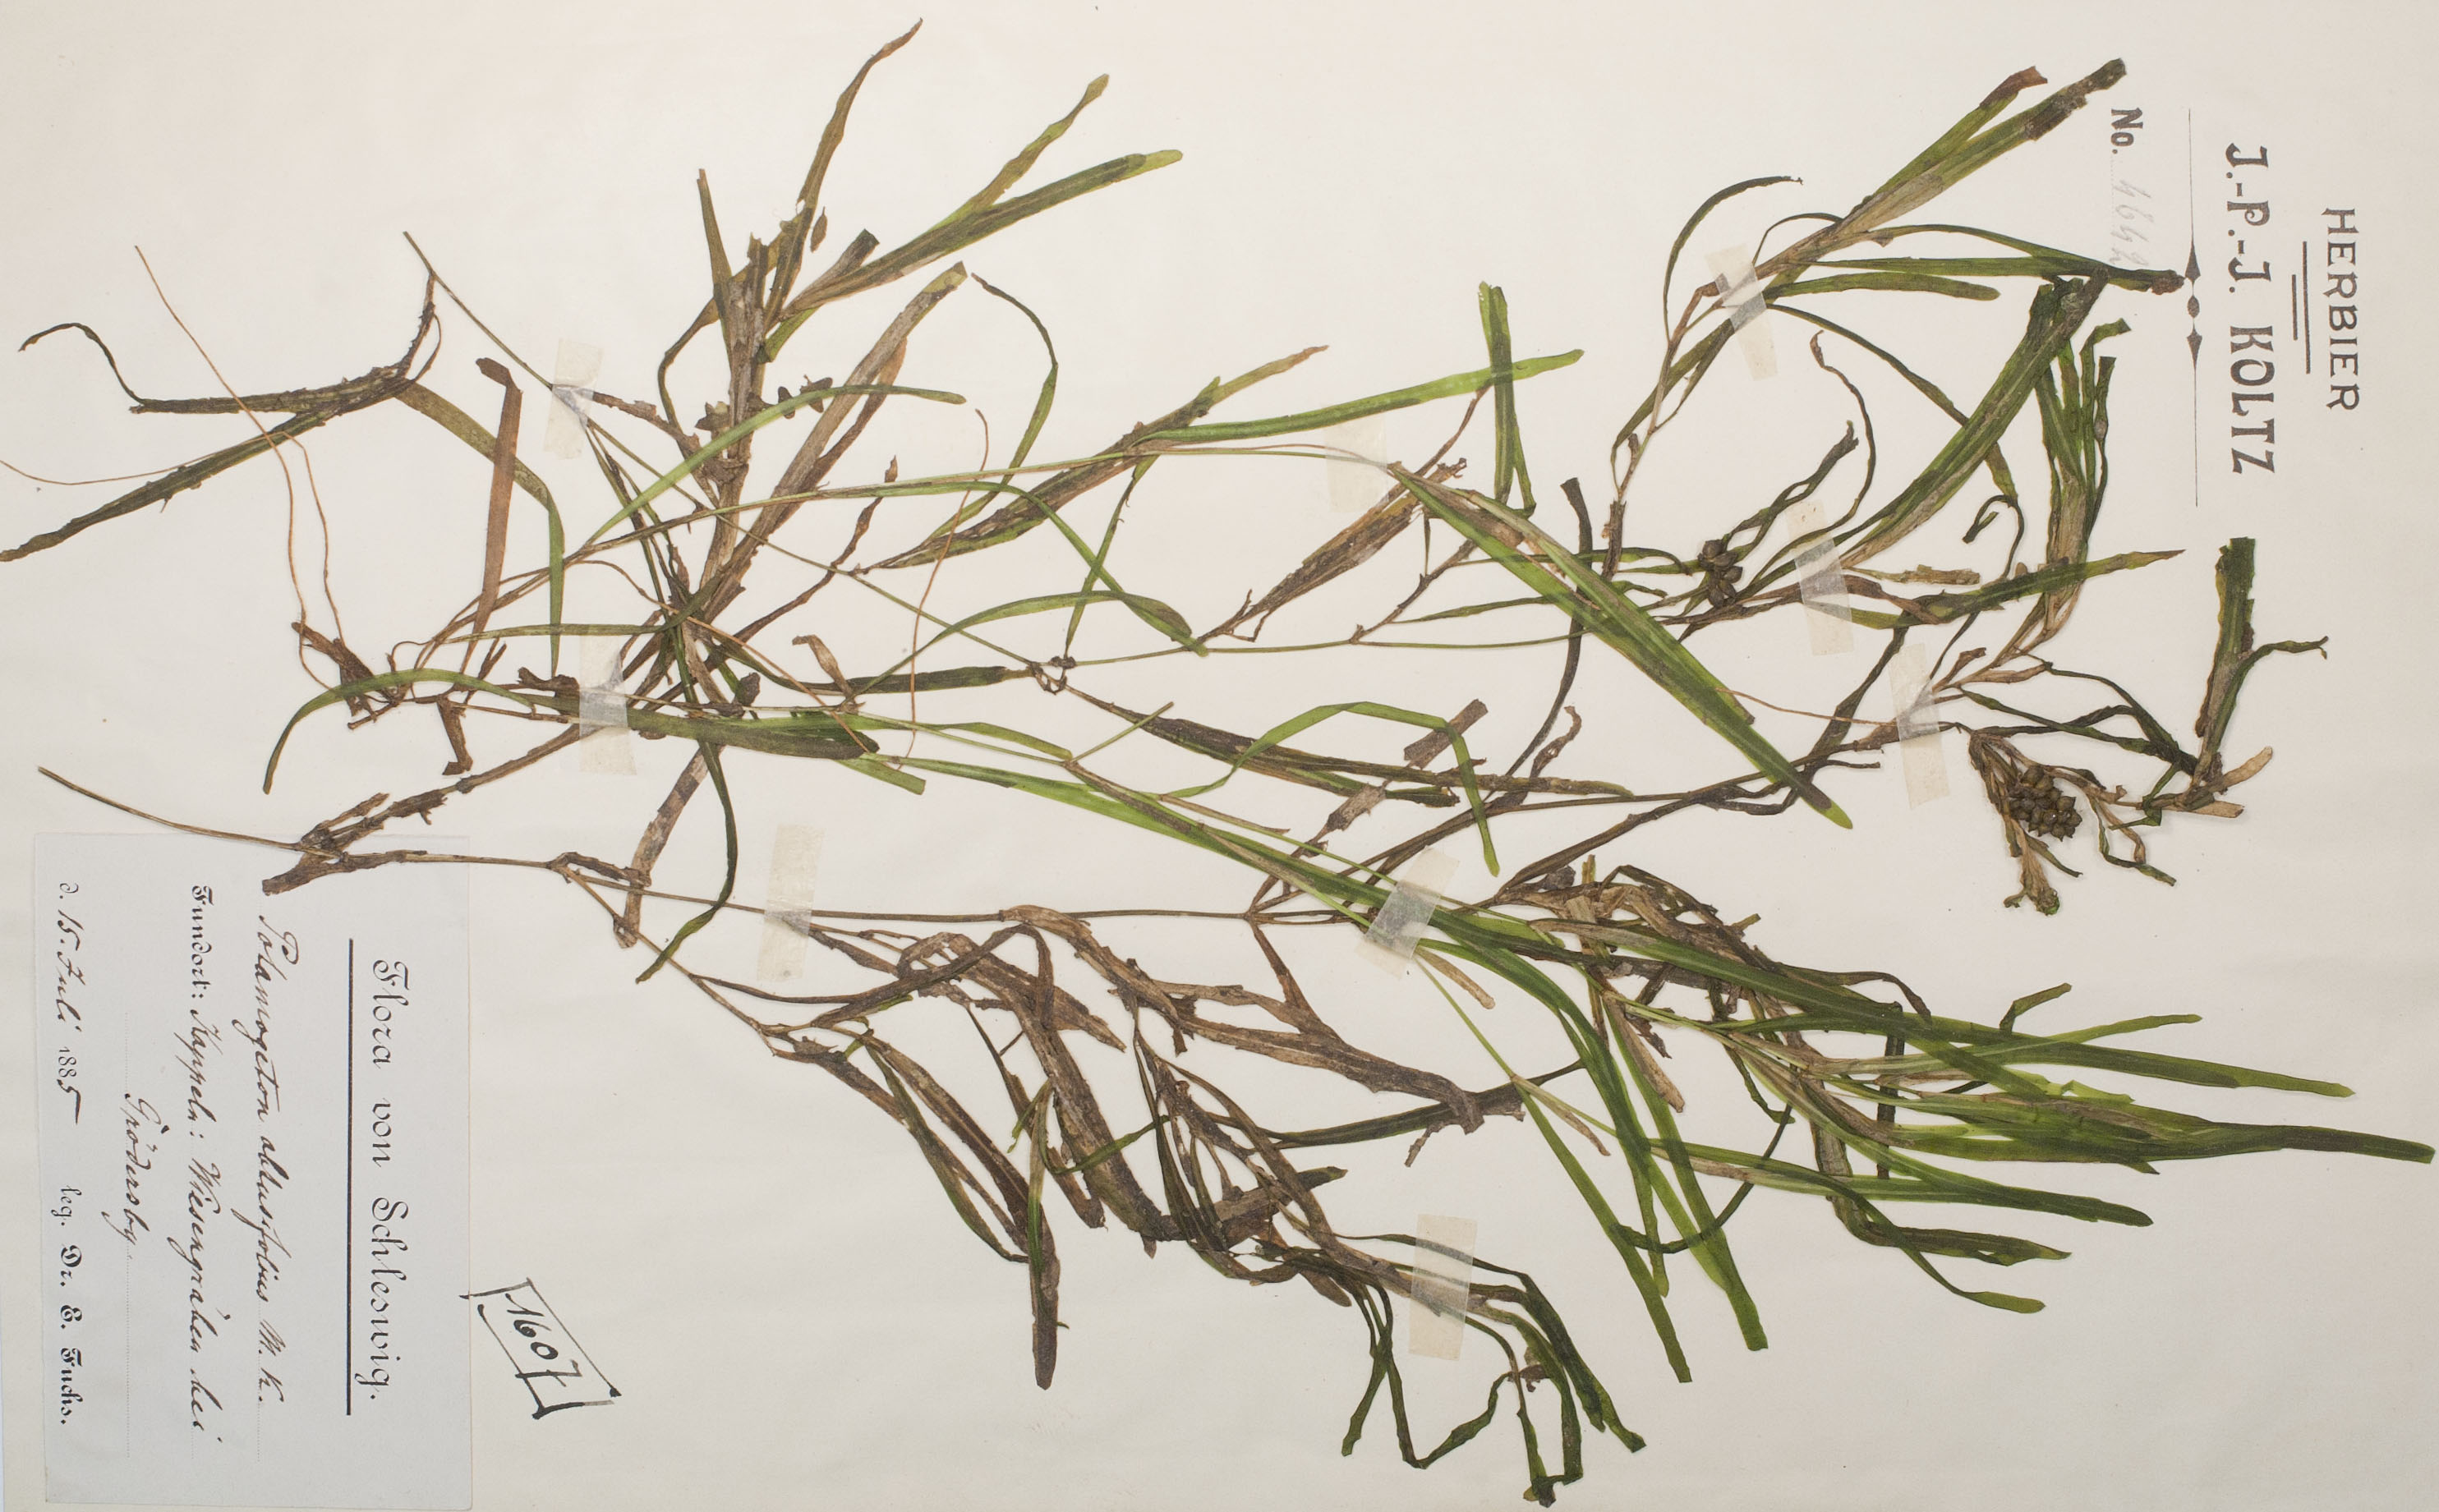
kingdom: Plantae
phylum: Tracheophyta
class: Liliopsida
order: Alismatales
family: Potamogetonaceae
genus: Potamogeton
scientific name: Potamogeton obtusifolius
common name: Blunt-leaved pondweed
